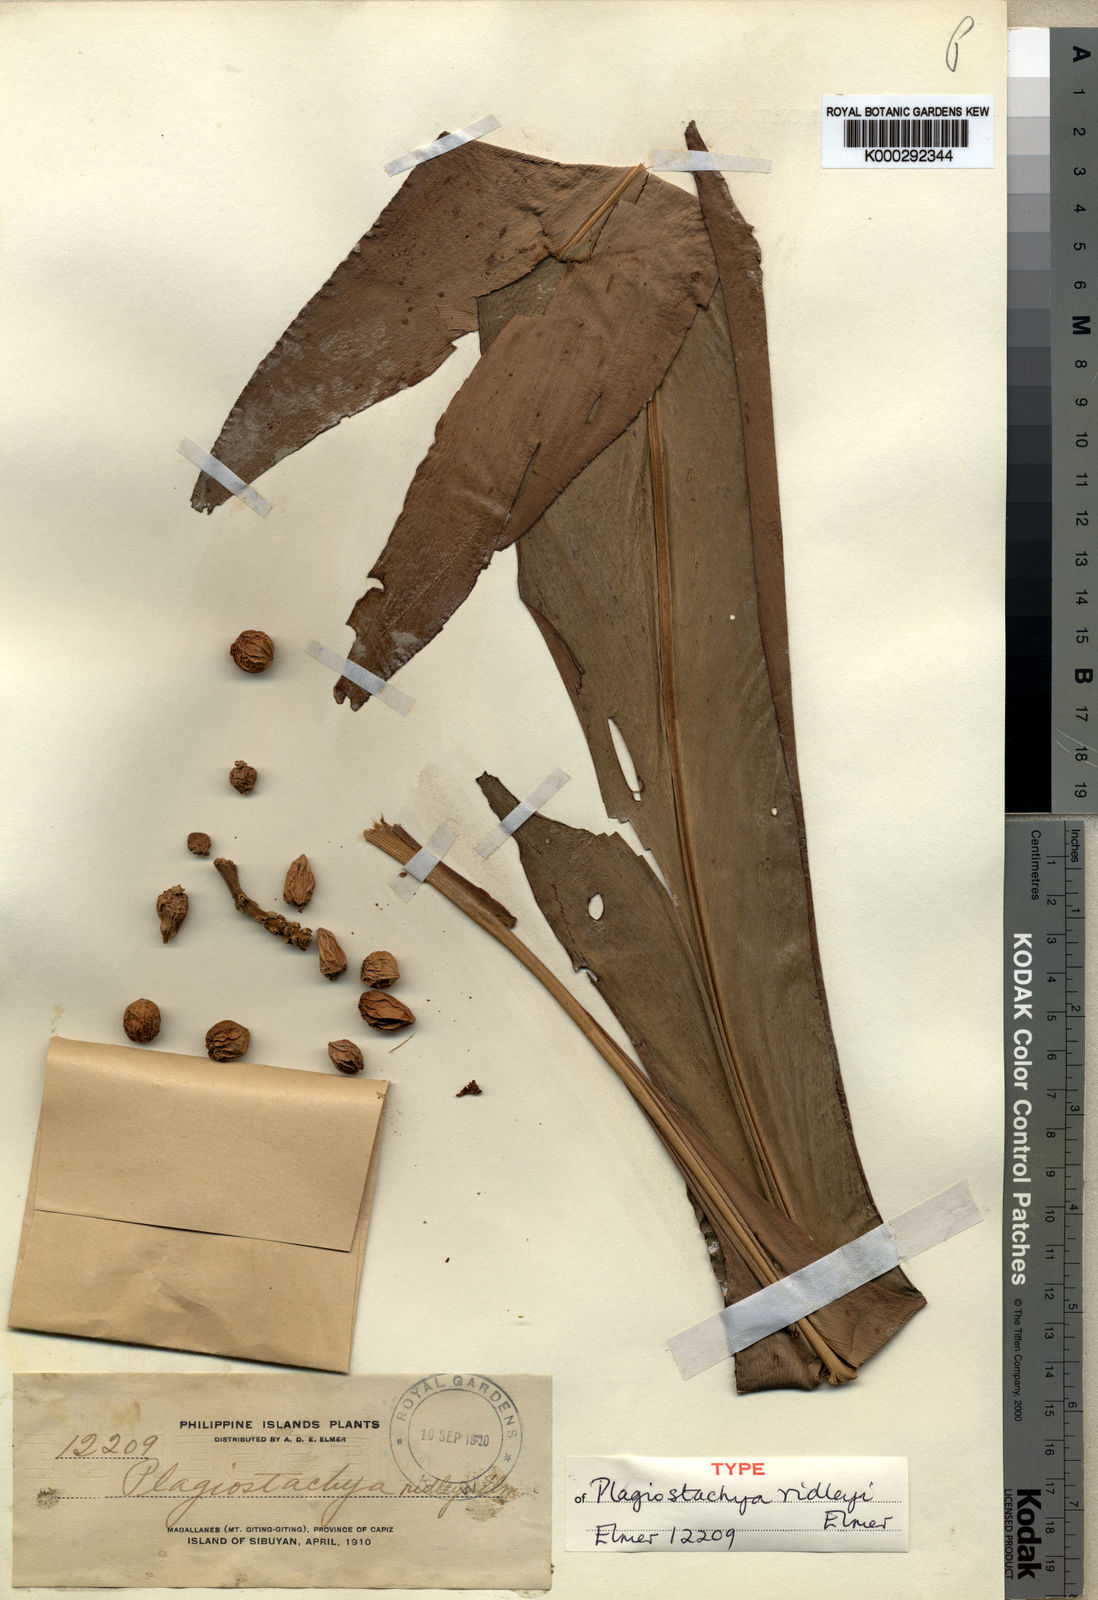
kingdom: Plantae
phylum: Tracheophyta
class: Liliopsida
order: Zingiberales
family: Zingiberaceae
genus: Plagiostachys
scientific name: Plagiostachys philippinensis
